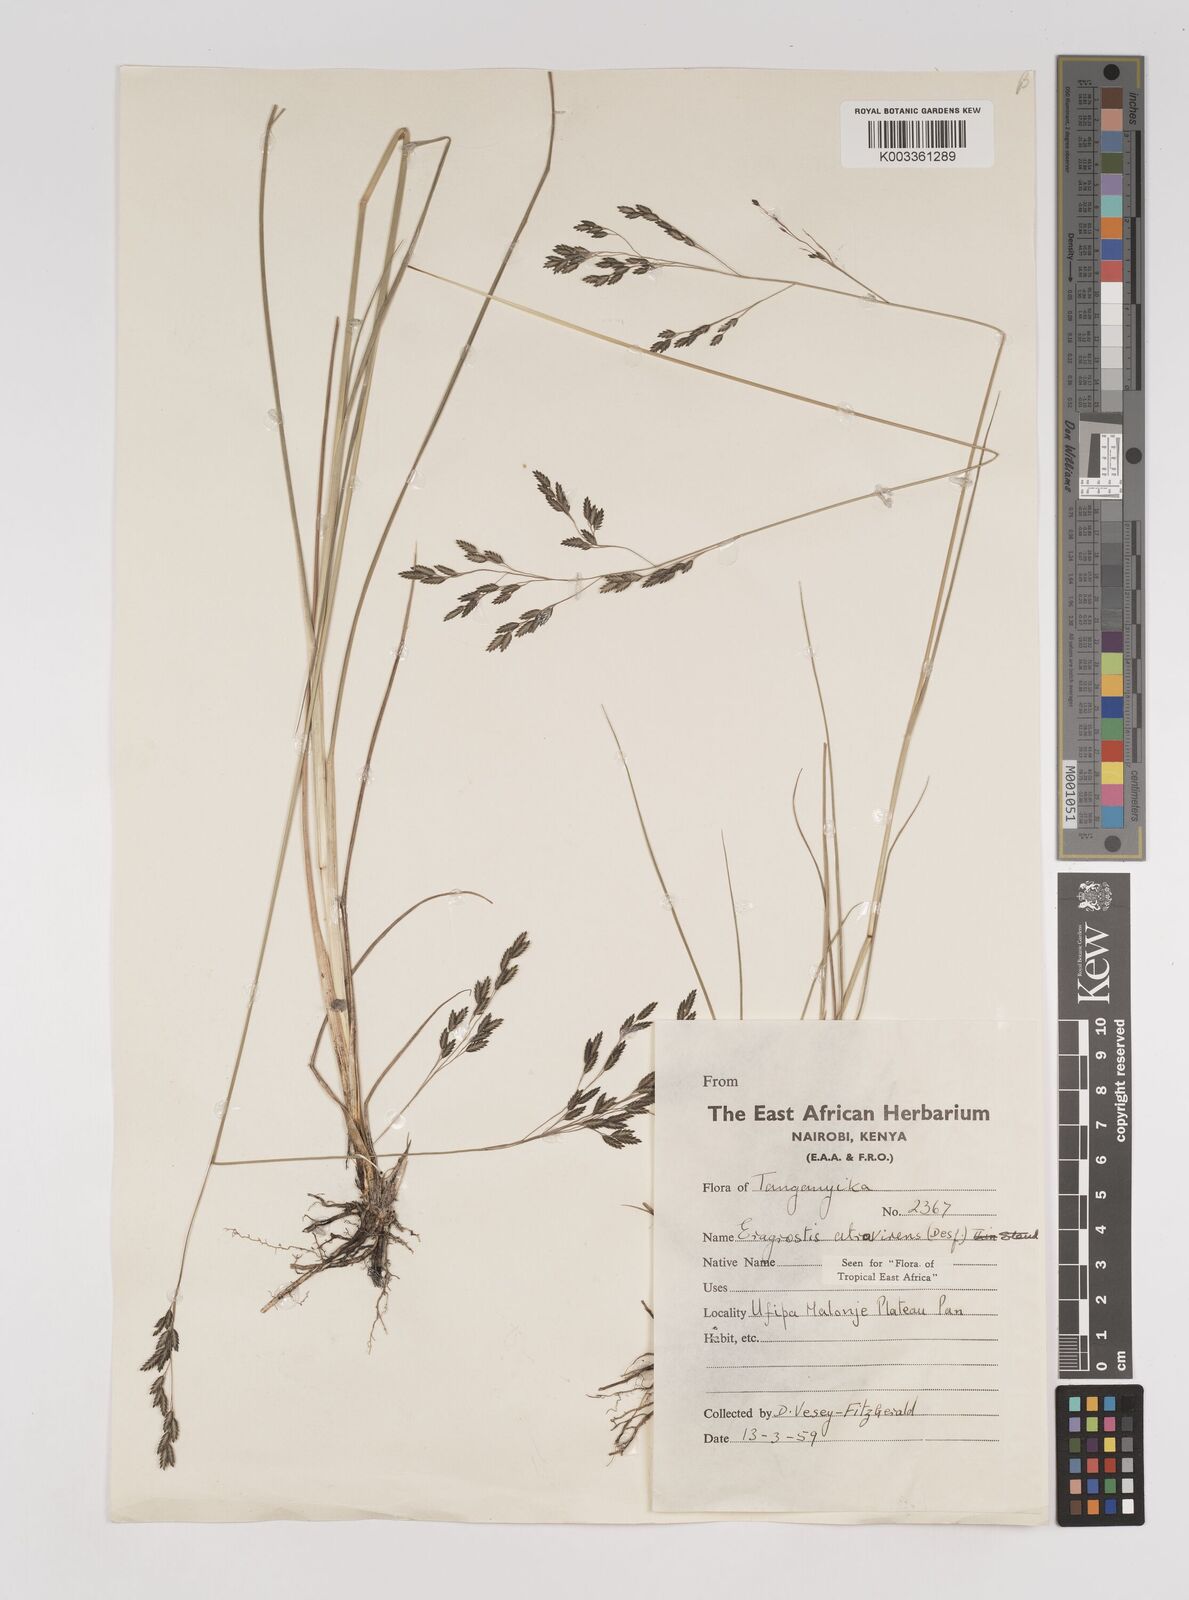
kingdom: Plantae
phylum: Tracheophyta
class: Liliopsida
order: Poales
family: Poaceae
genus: Eragrostis
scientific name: Eragrostis papposa
